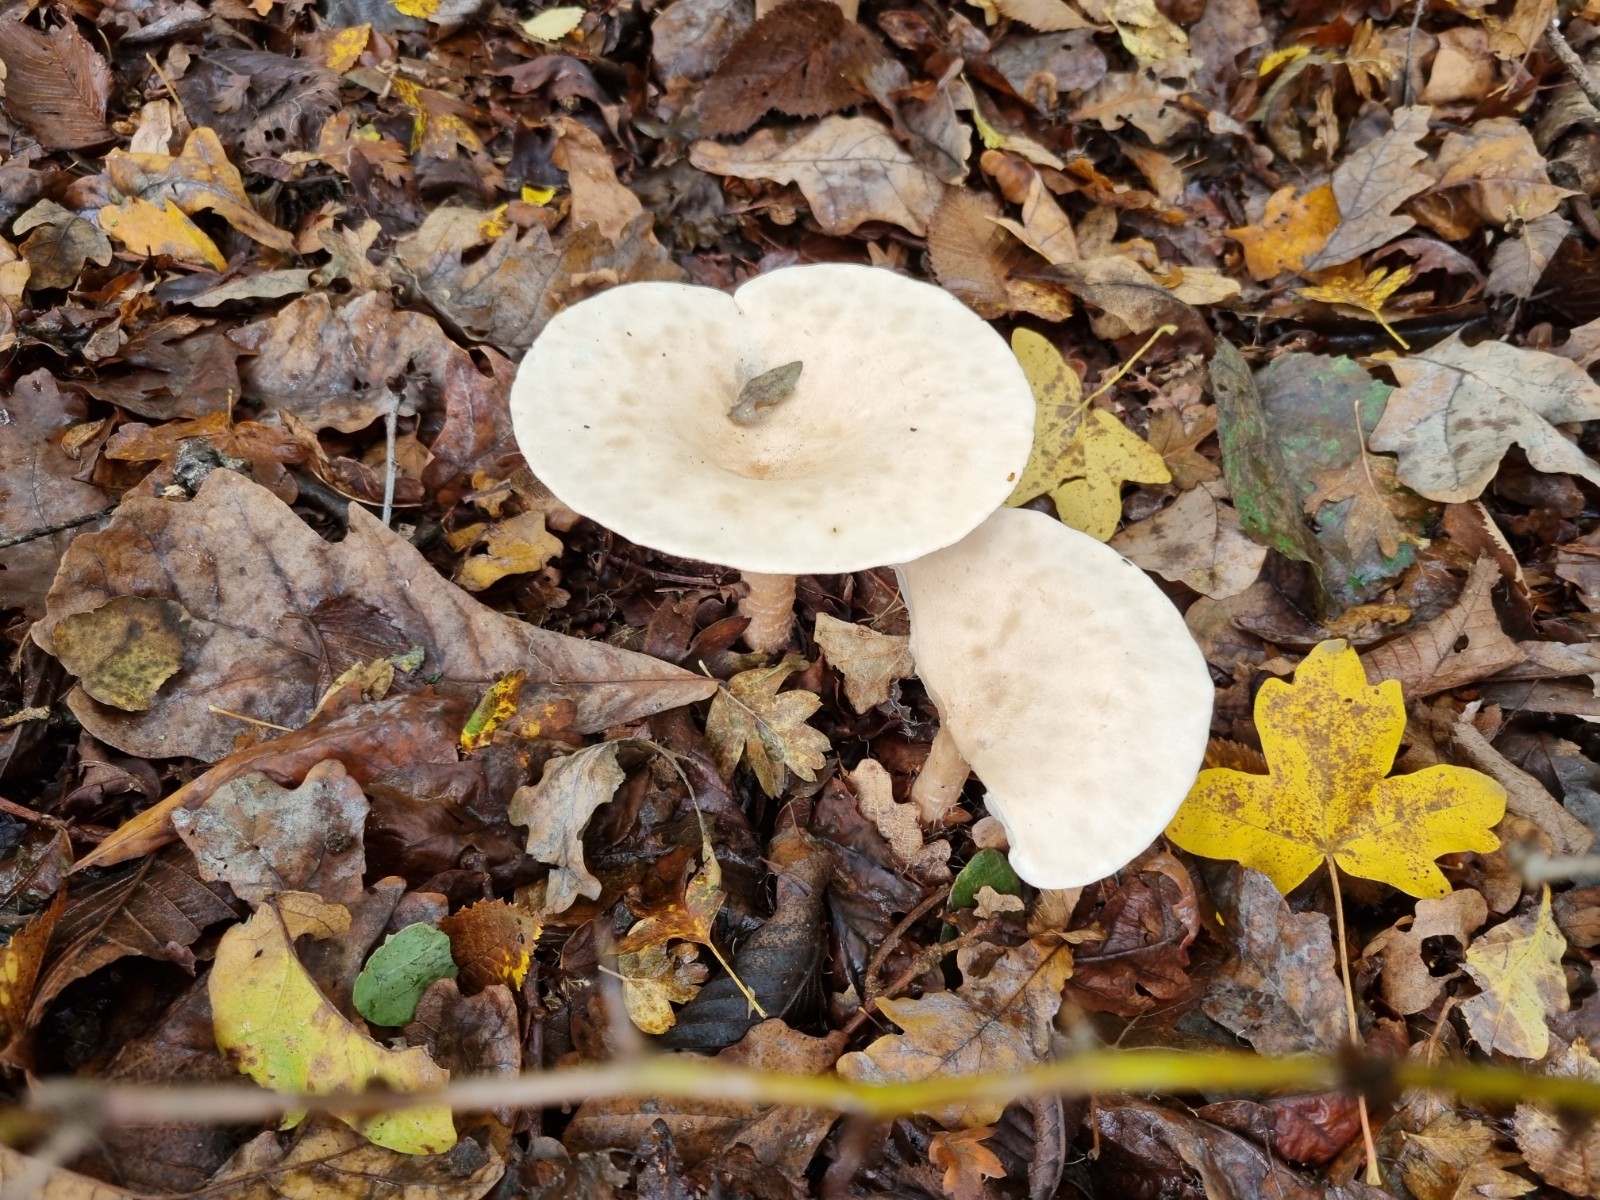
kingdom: Fungi
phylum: Basidiomycota
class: Agaricomycetes
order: Agaricales
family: Tricholomataceae
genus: Infundibulicybe
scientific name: Infundibulicybe geotropa
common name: stor tragthat
